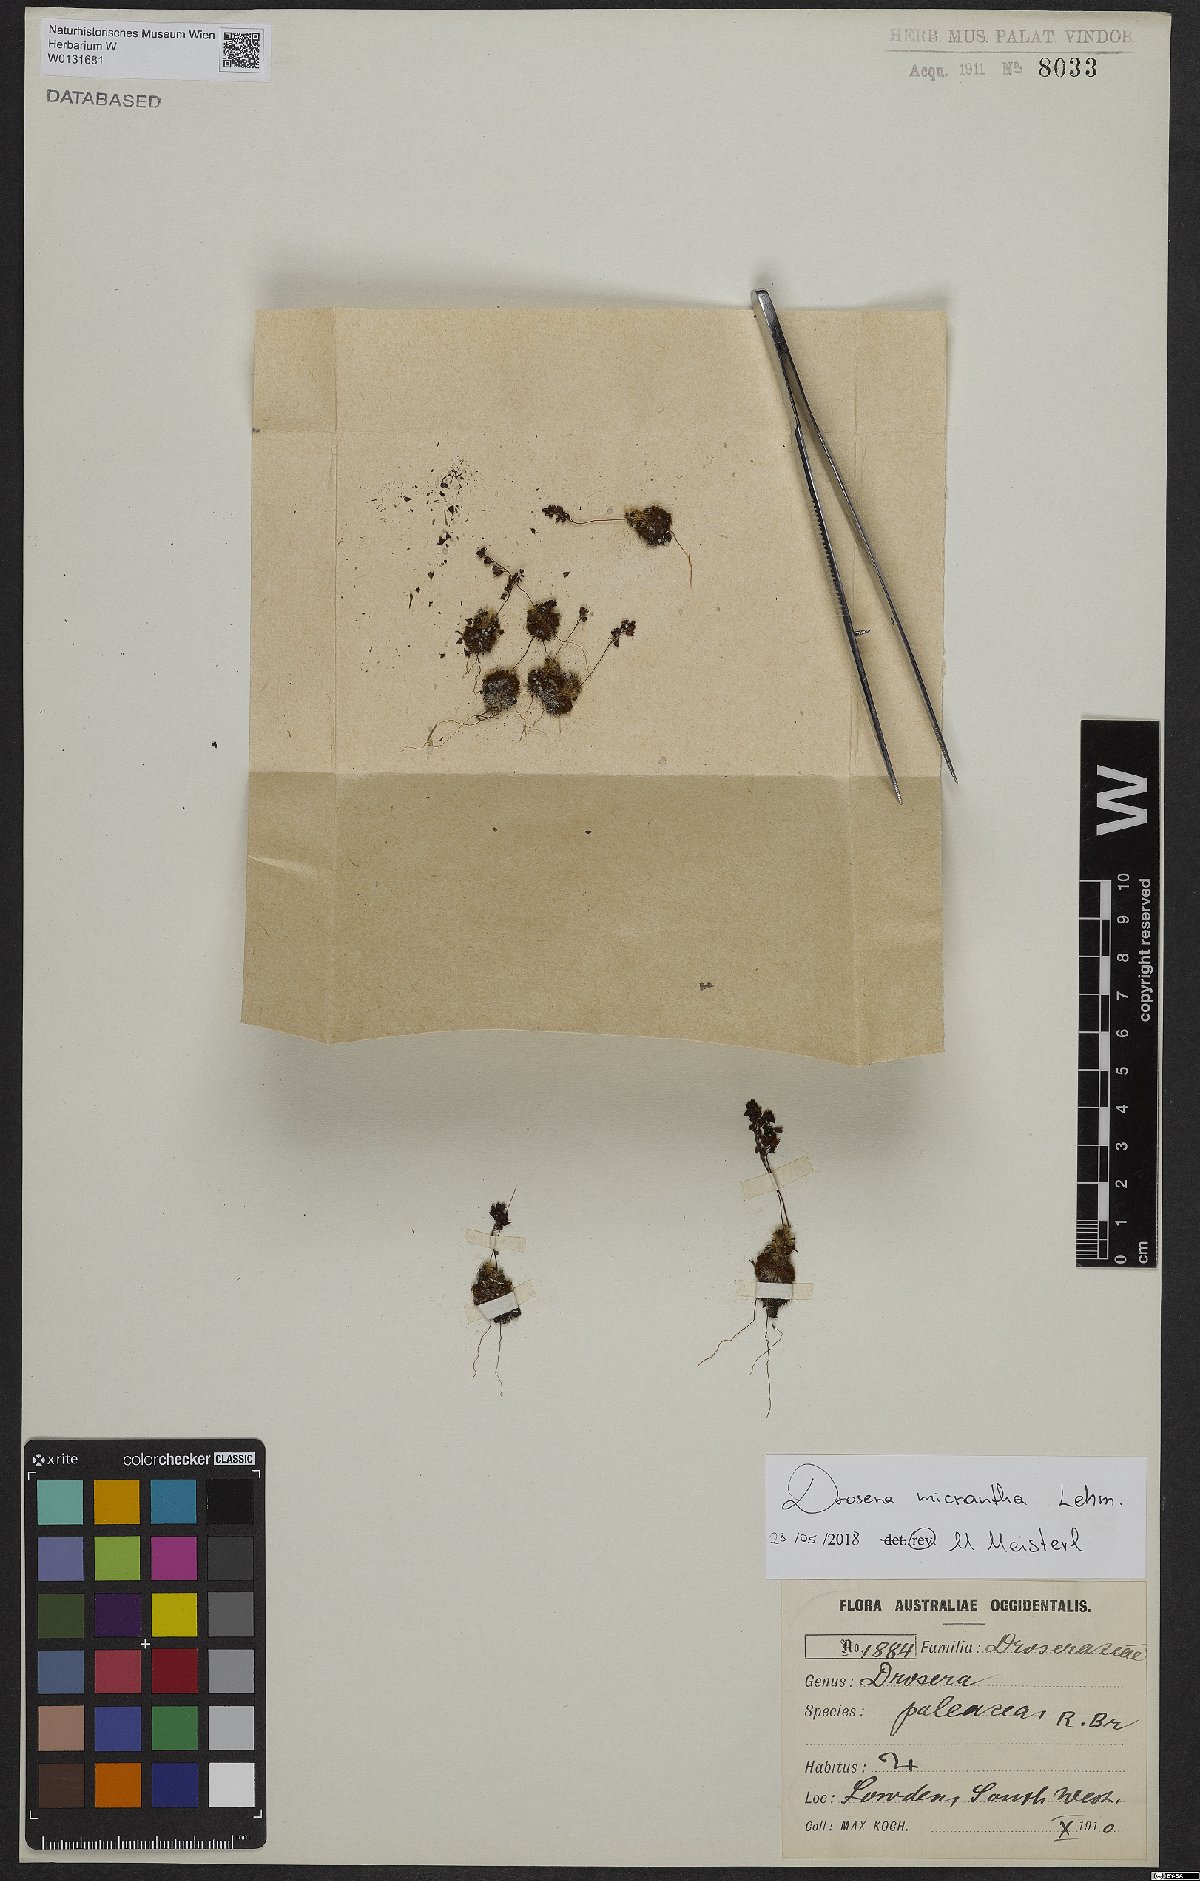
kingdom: Plantae
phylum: Tracheophyta
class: Magnoliopsida
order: Caryophyllales
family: Droseraceae
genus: Drosera
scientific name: Drosera paleacea
